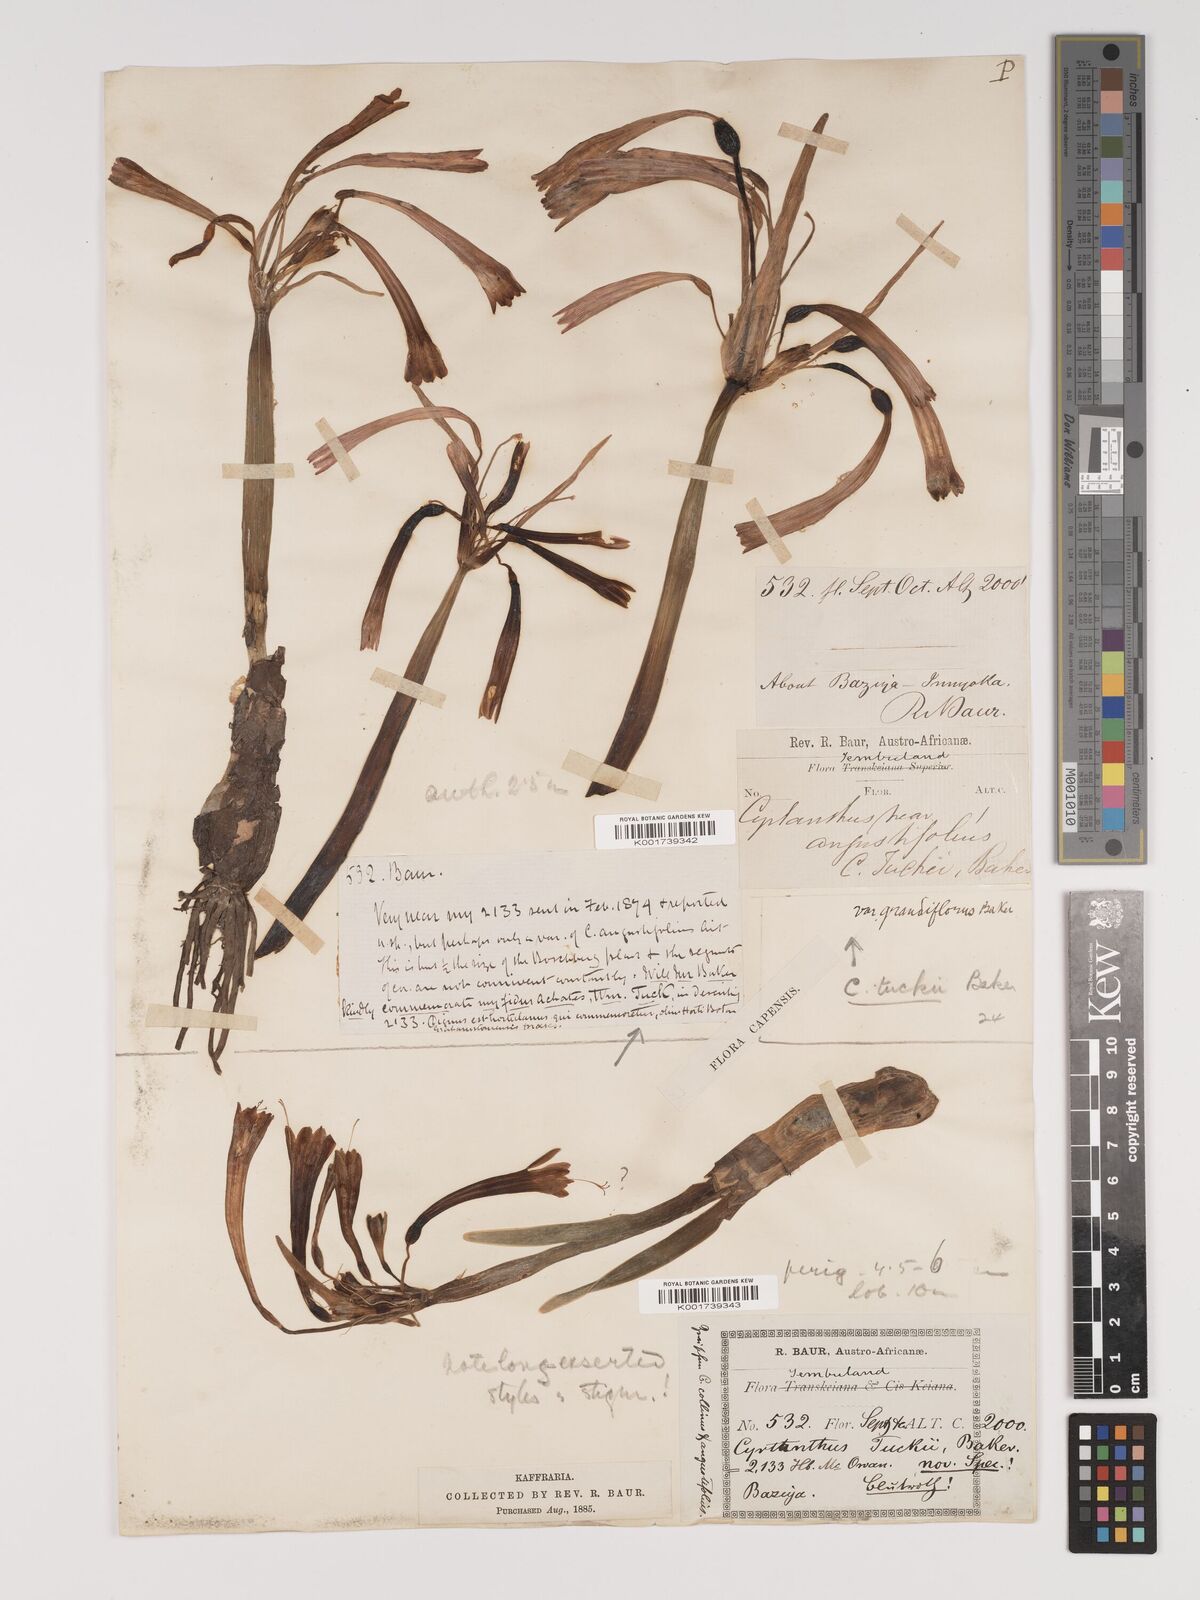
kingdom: Plantae
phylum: Tracheophyta
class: Liliopsida
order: Asparagales
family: Amaryllidaceae
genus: Cyrtanthus
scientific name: Cyrtanthus tuckii
